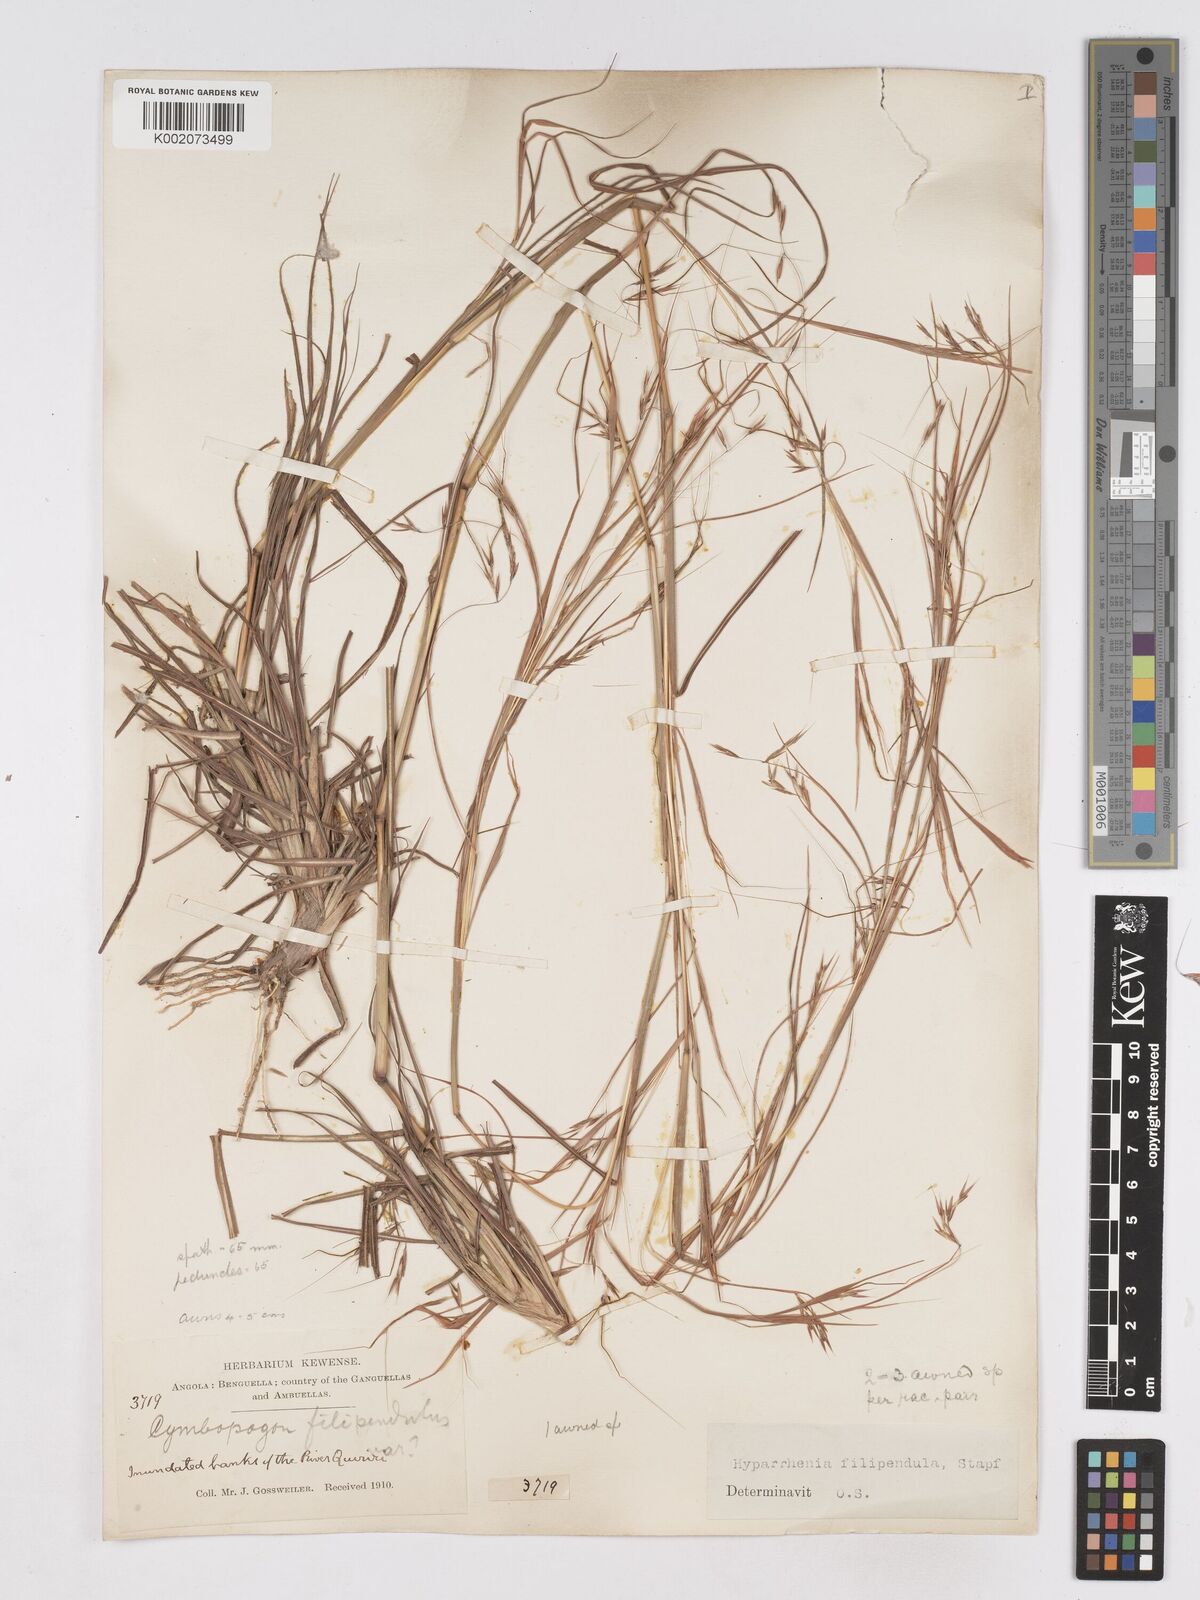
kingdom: Plantae
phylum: Tracheophyta
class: Liliopsida
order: Poales
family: Poaceae
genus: Hyparrhenia
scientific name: Hyparrhenia filipendula
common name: Tambookie grass
